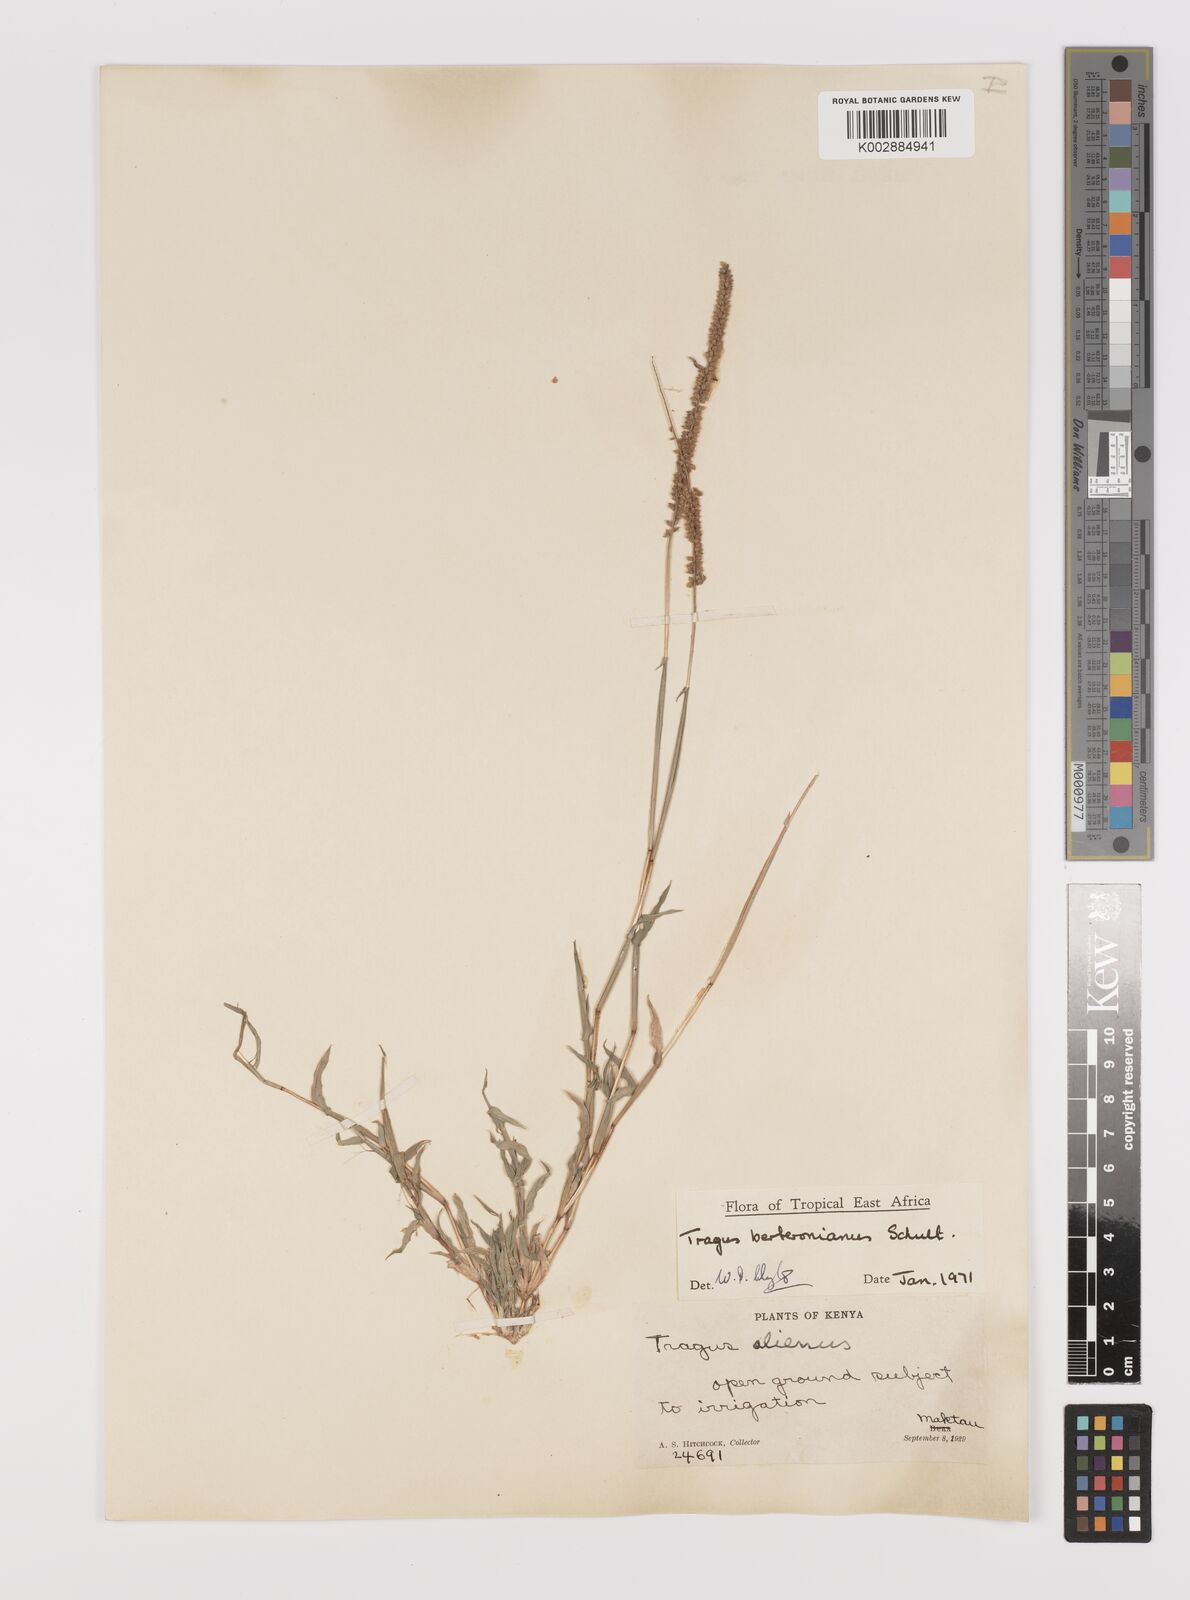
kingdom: Plantae
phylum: Tracheophyta
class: Liliopsida
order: Poales
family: Poaceae
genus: Tragus
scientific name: Tragus berteronianus
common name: African bur-grass
